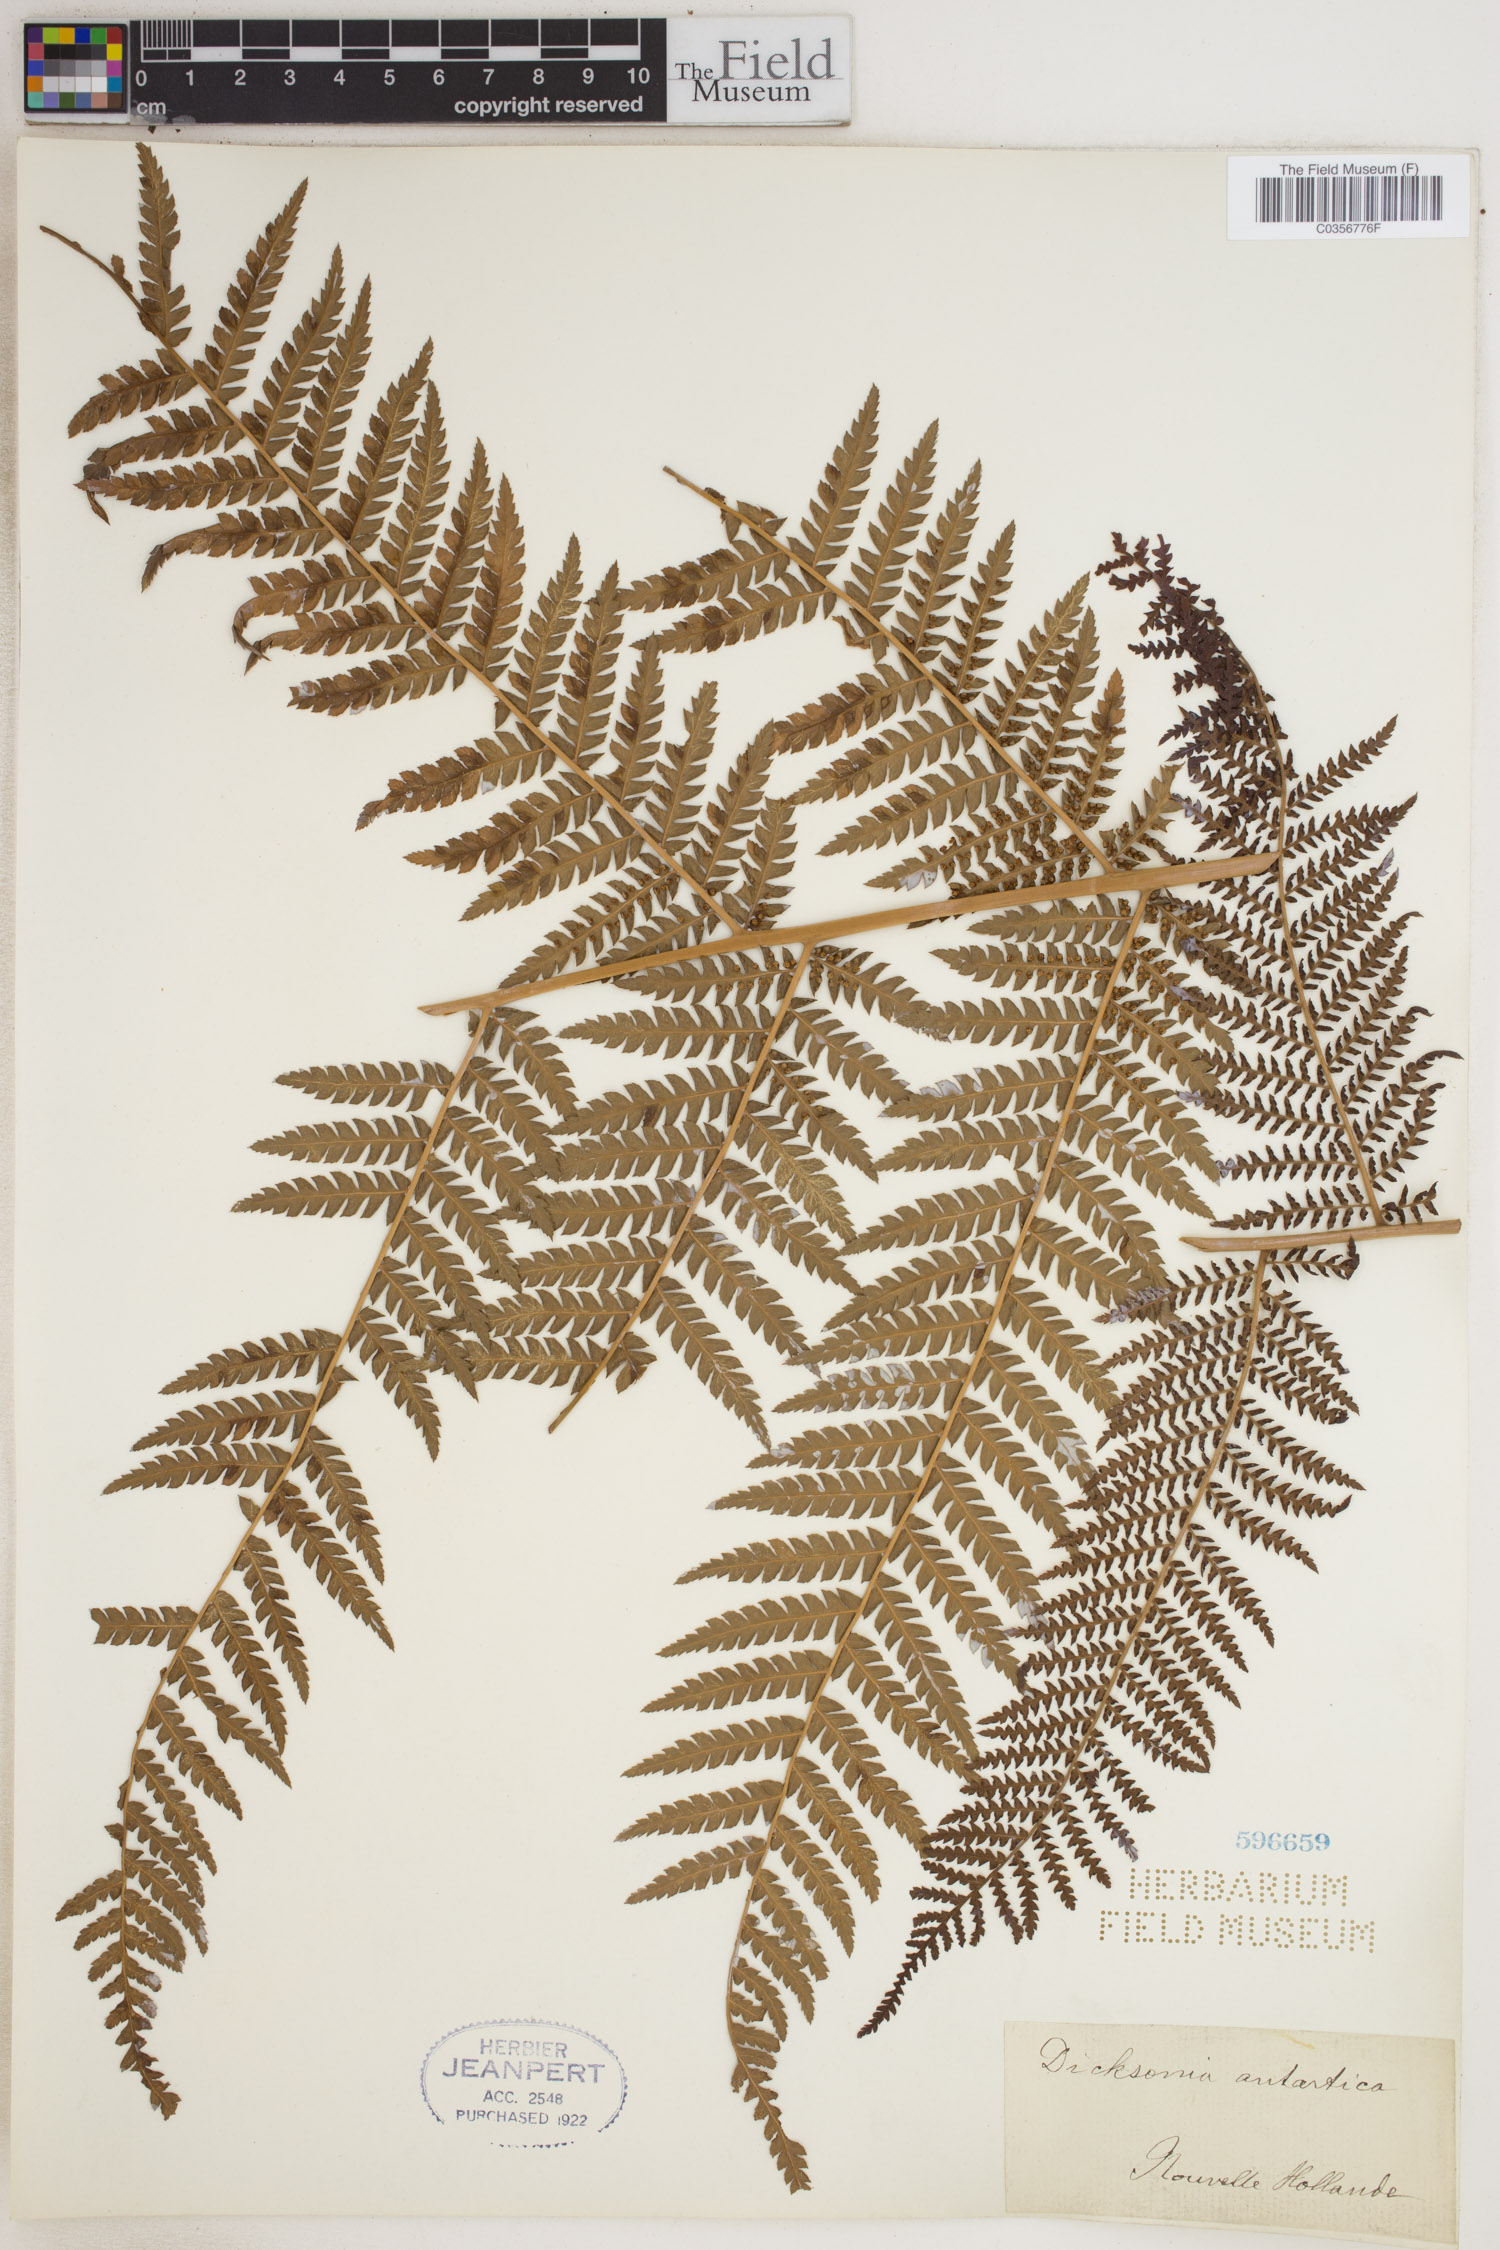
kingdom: Plantae
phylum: Tracheophyta
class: Polypodiopsida
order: Cyatheales
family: Dicksoniaceae
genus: Dicksonia
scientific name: Dicksonia antarctica
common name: Australian treefern
